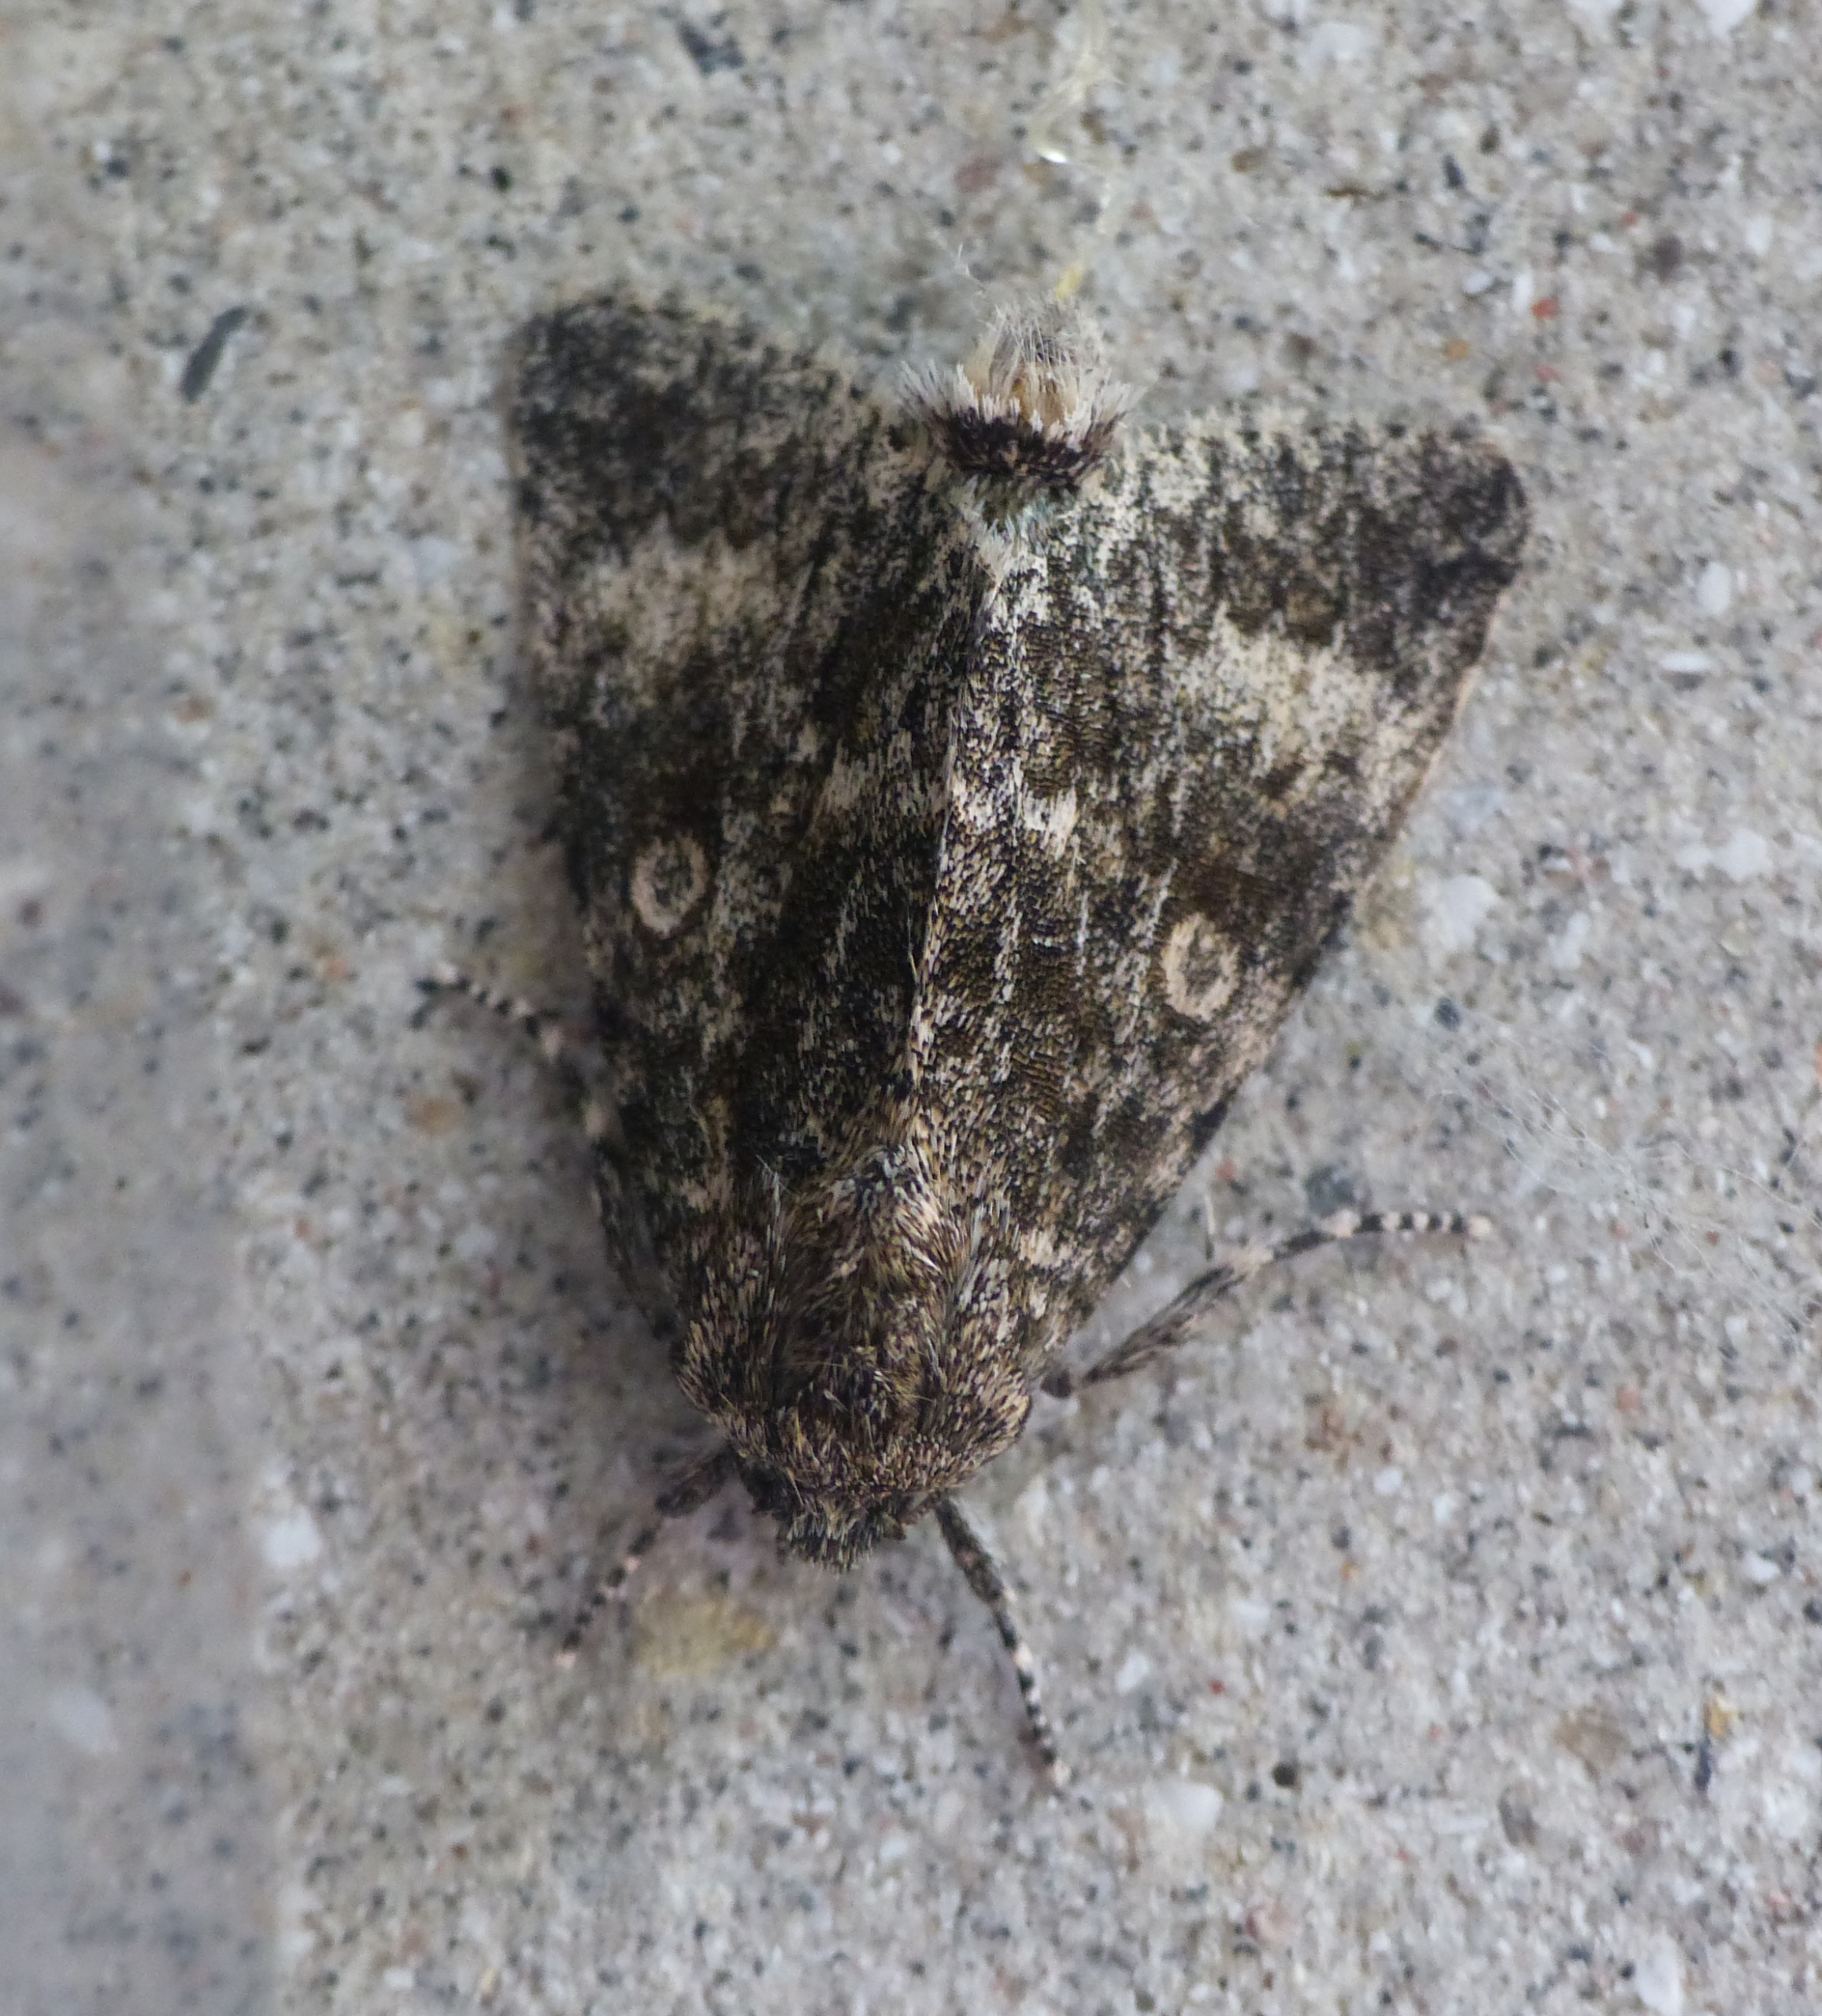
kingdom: Animalia
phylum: Arthropoda
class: Insecta
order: Lepidoptera
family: Noctuidae
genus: Acronicta
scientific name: Acronicta megacephala
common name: Poppelugle
